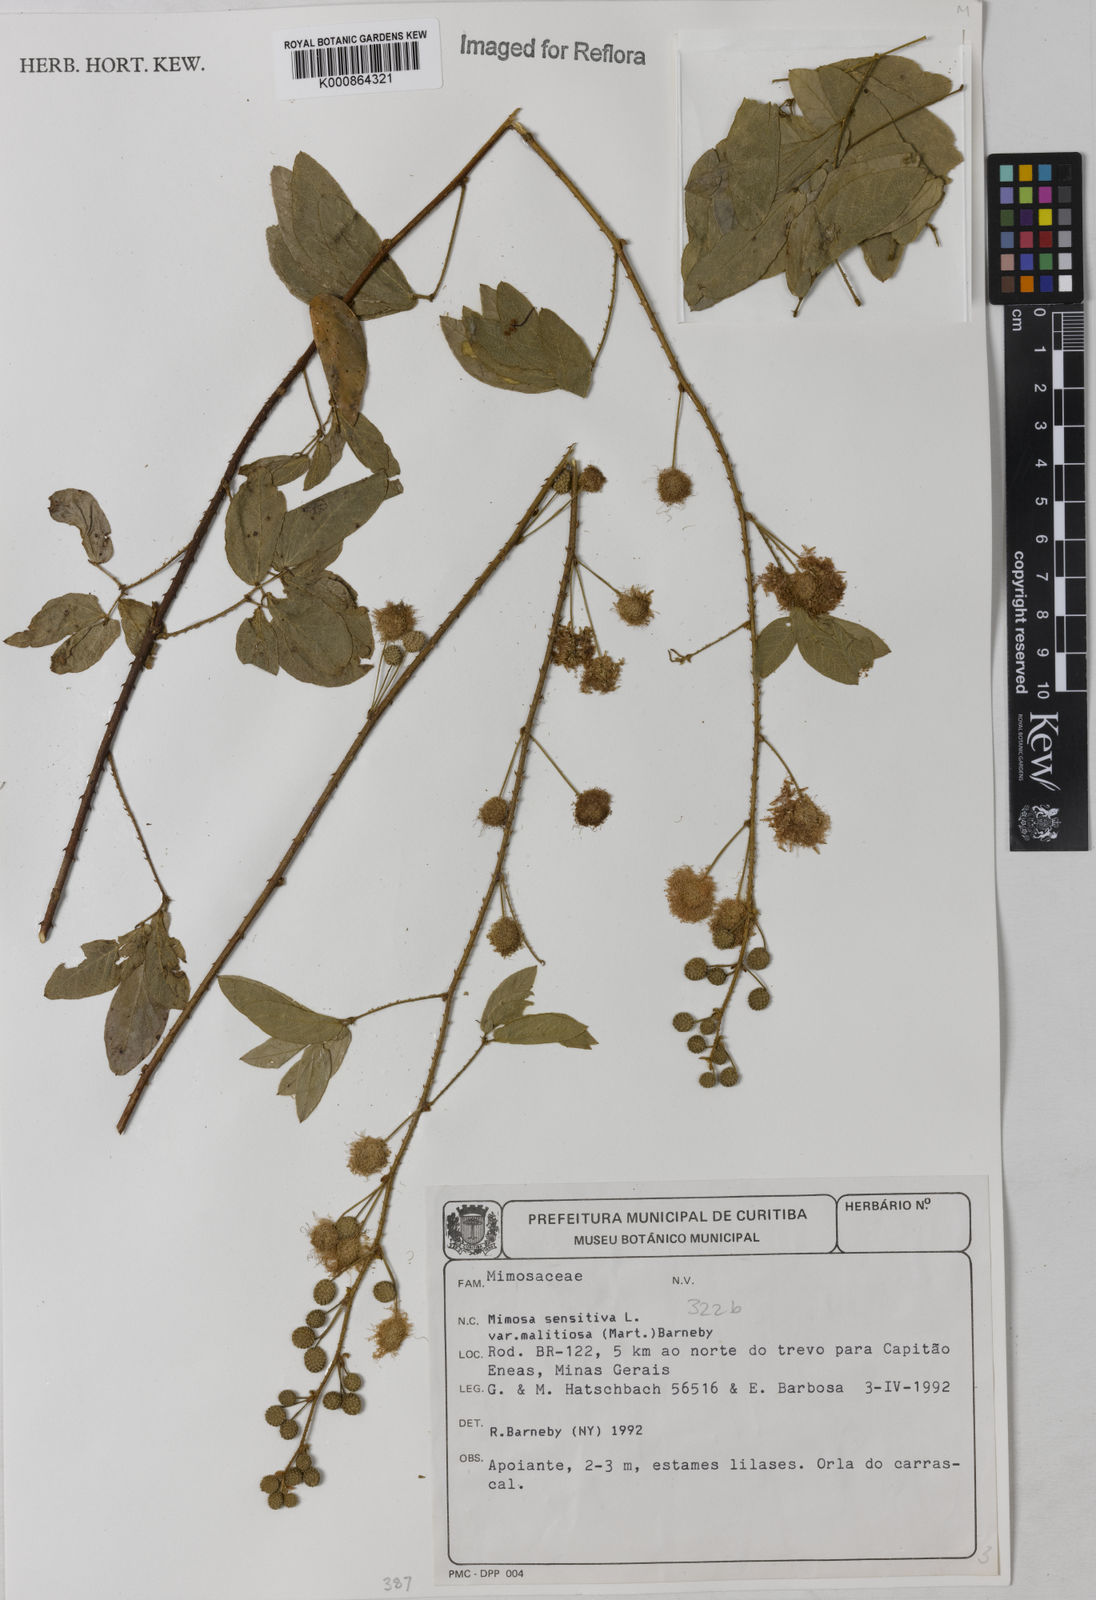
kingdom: Plantae
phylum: Tracheophyta
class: Magnoliopsida
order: Fabales
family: Fabaceae
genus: Mimosa
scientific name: Mimosa sensitiva
